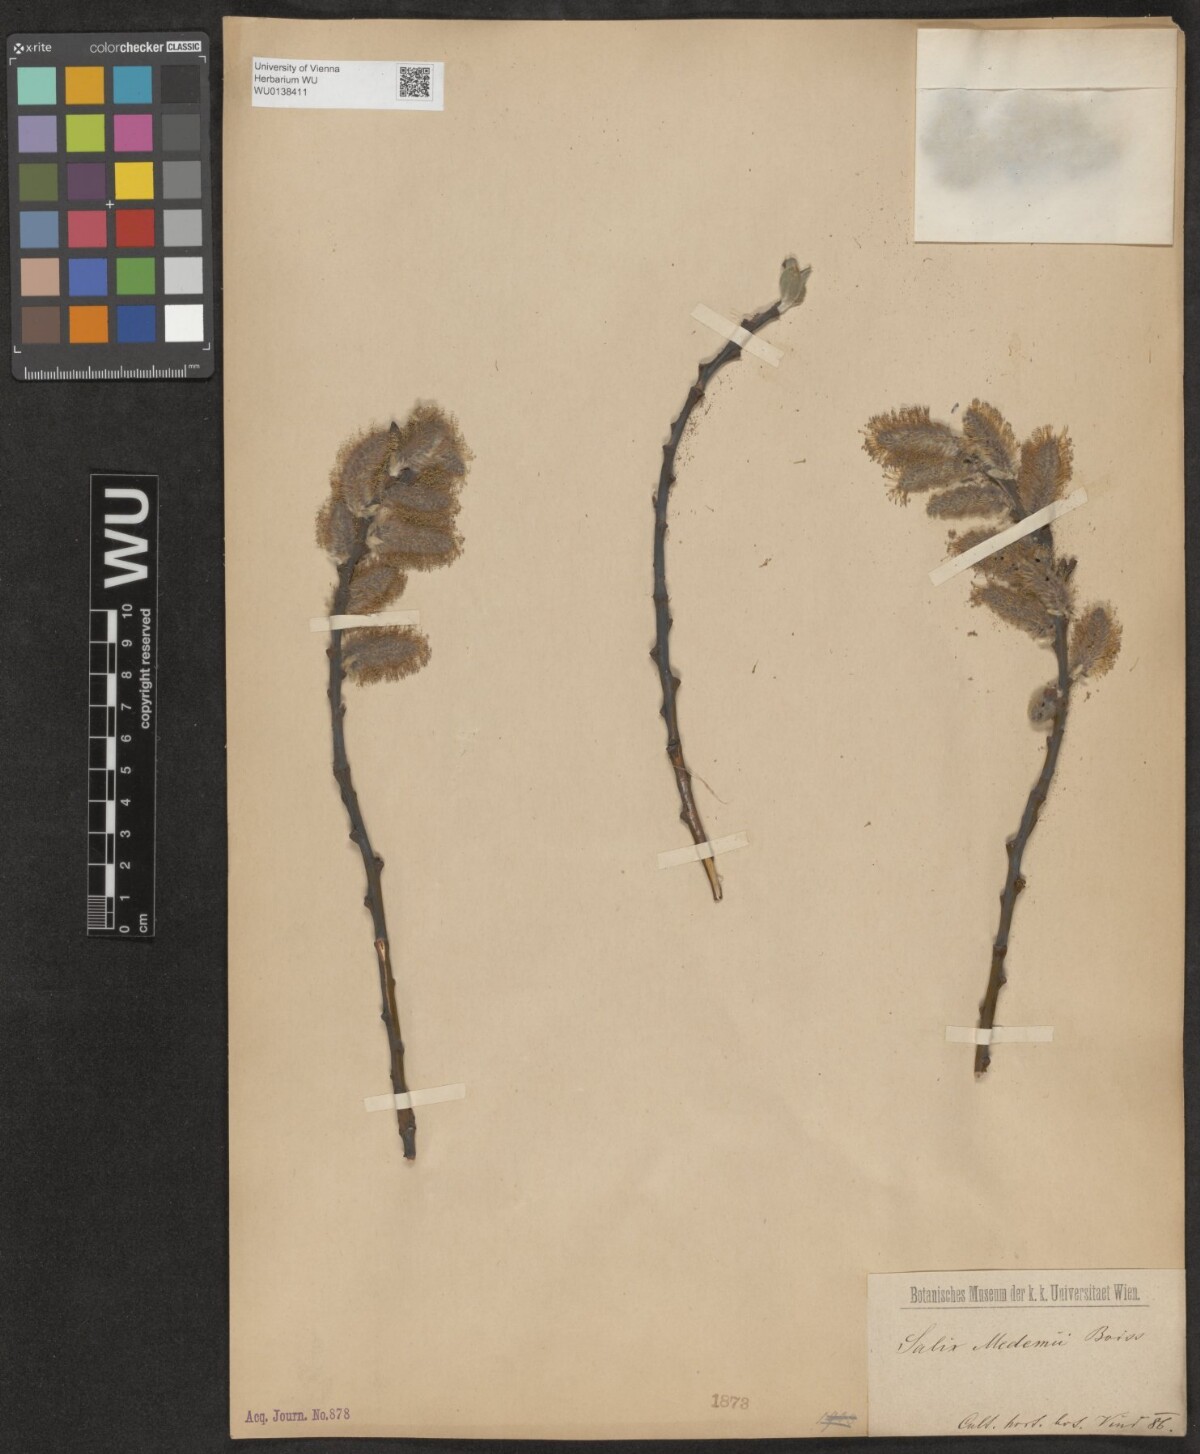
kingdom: Plantae
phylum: Tracheophyta
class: Magnoliopsida
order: Malpighiales
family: Salicaceae
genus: Salix
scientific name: Salix aegyptiaca
